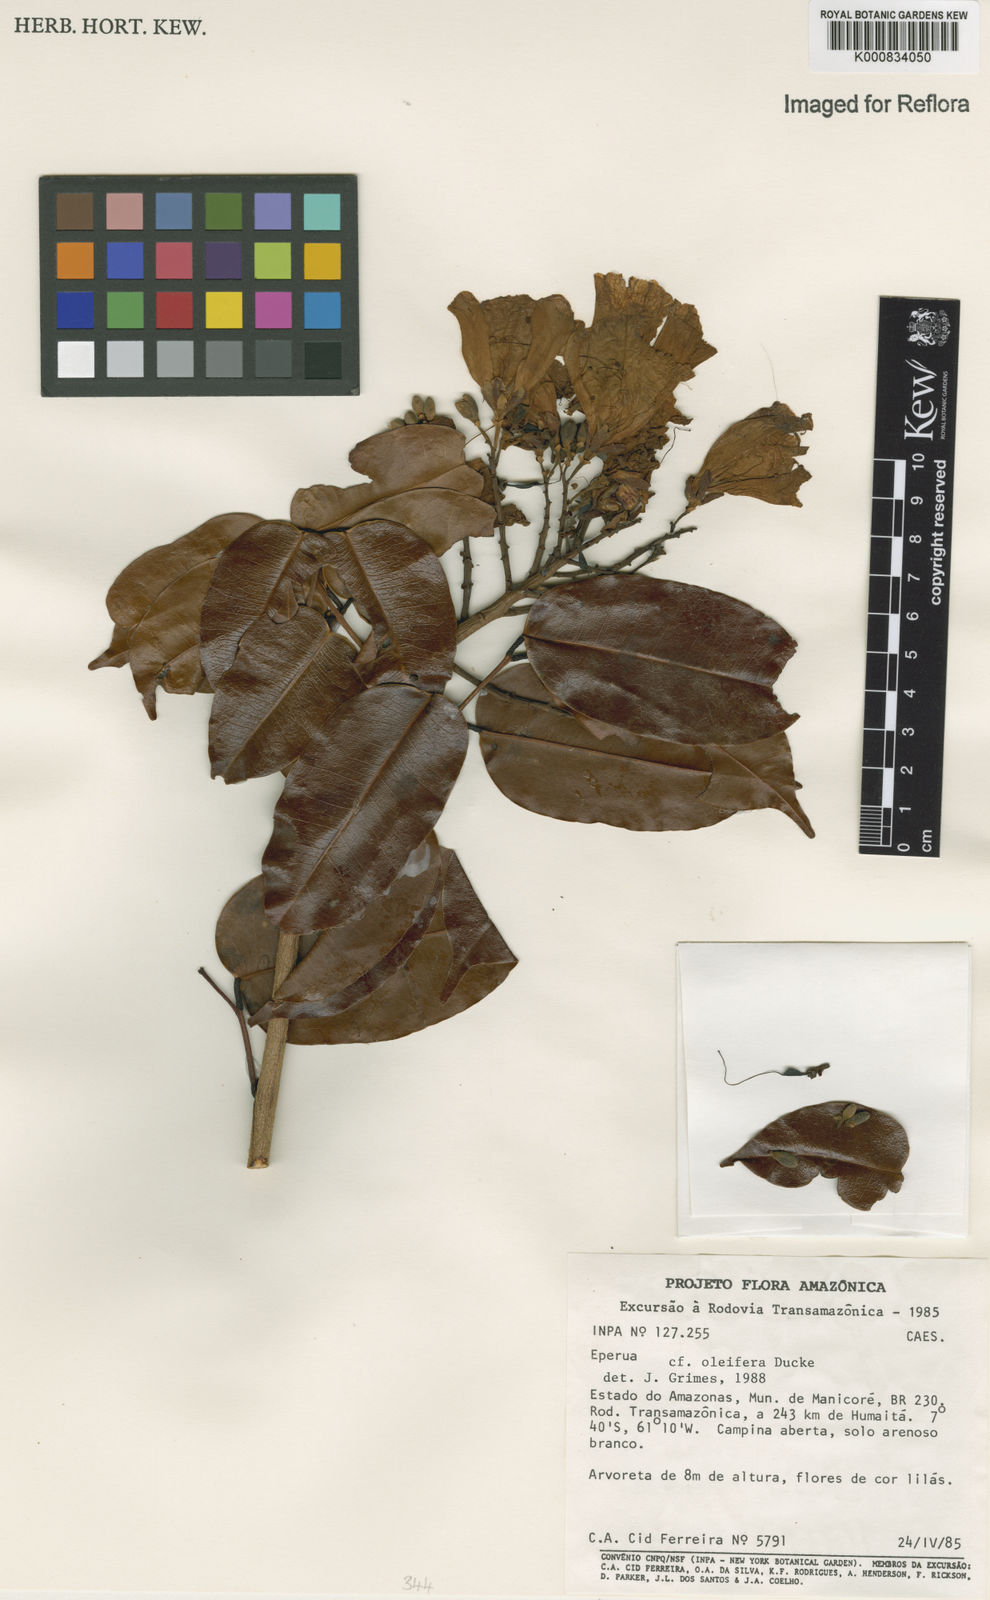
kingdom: Plantae
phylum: Tracheophyta
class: Magnoliopsida
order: Fabales
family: Fabaceae
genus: Eperua
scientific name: Eperua oleifera
